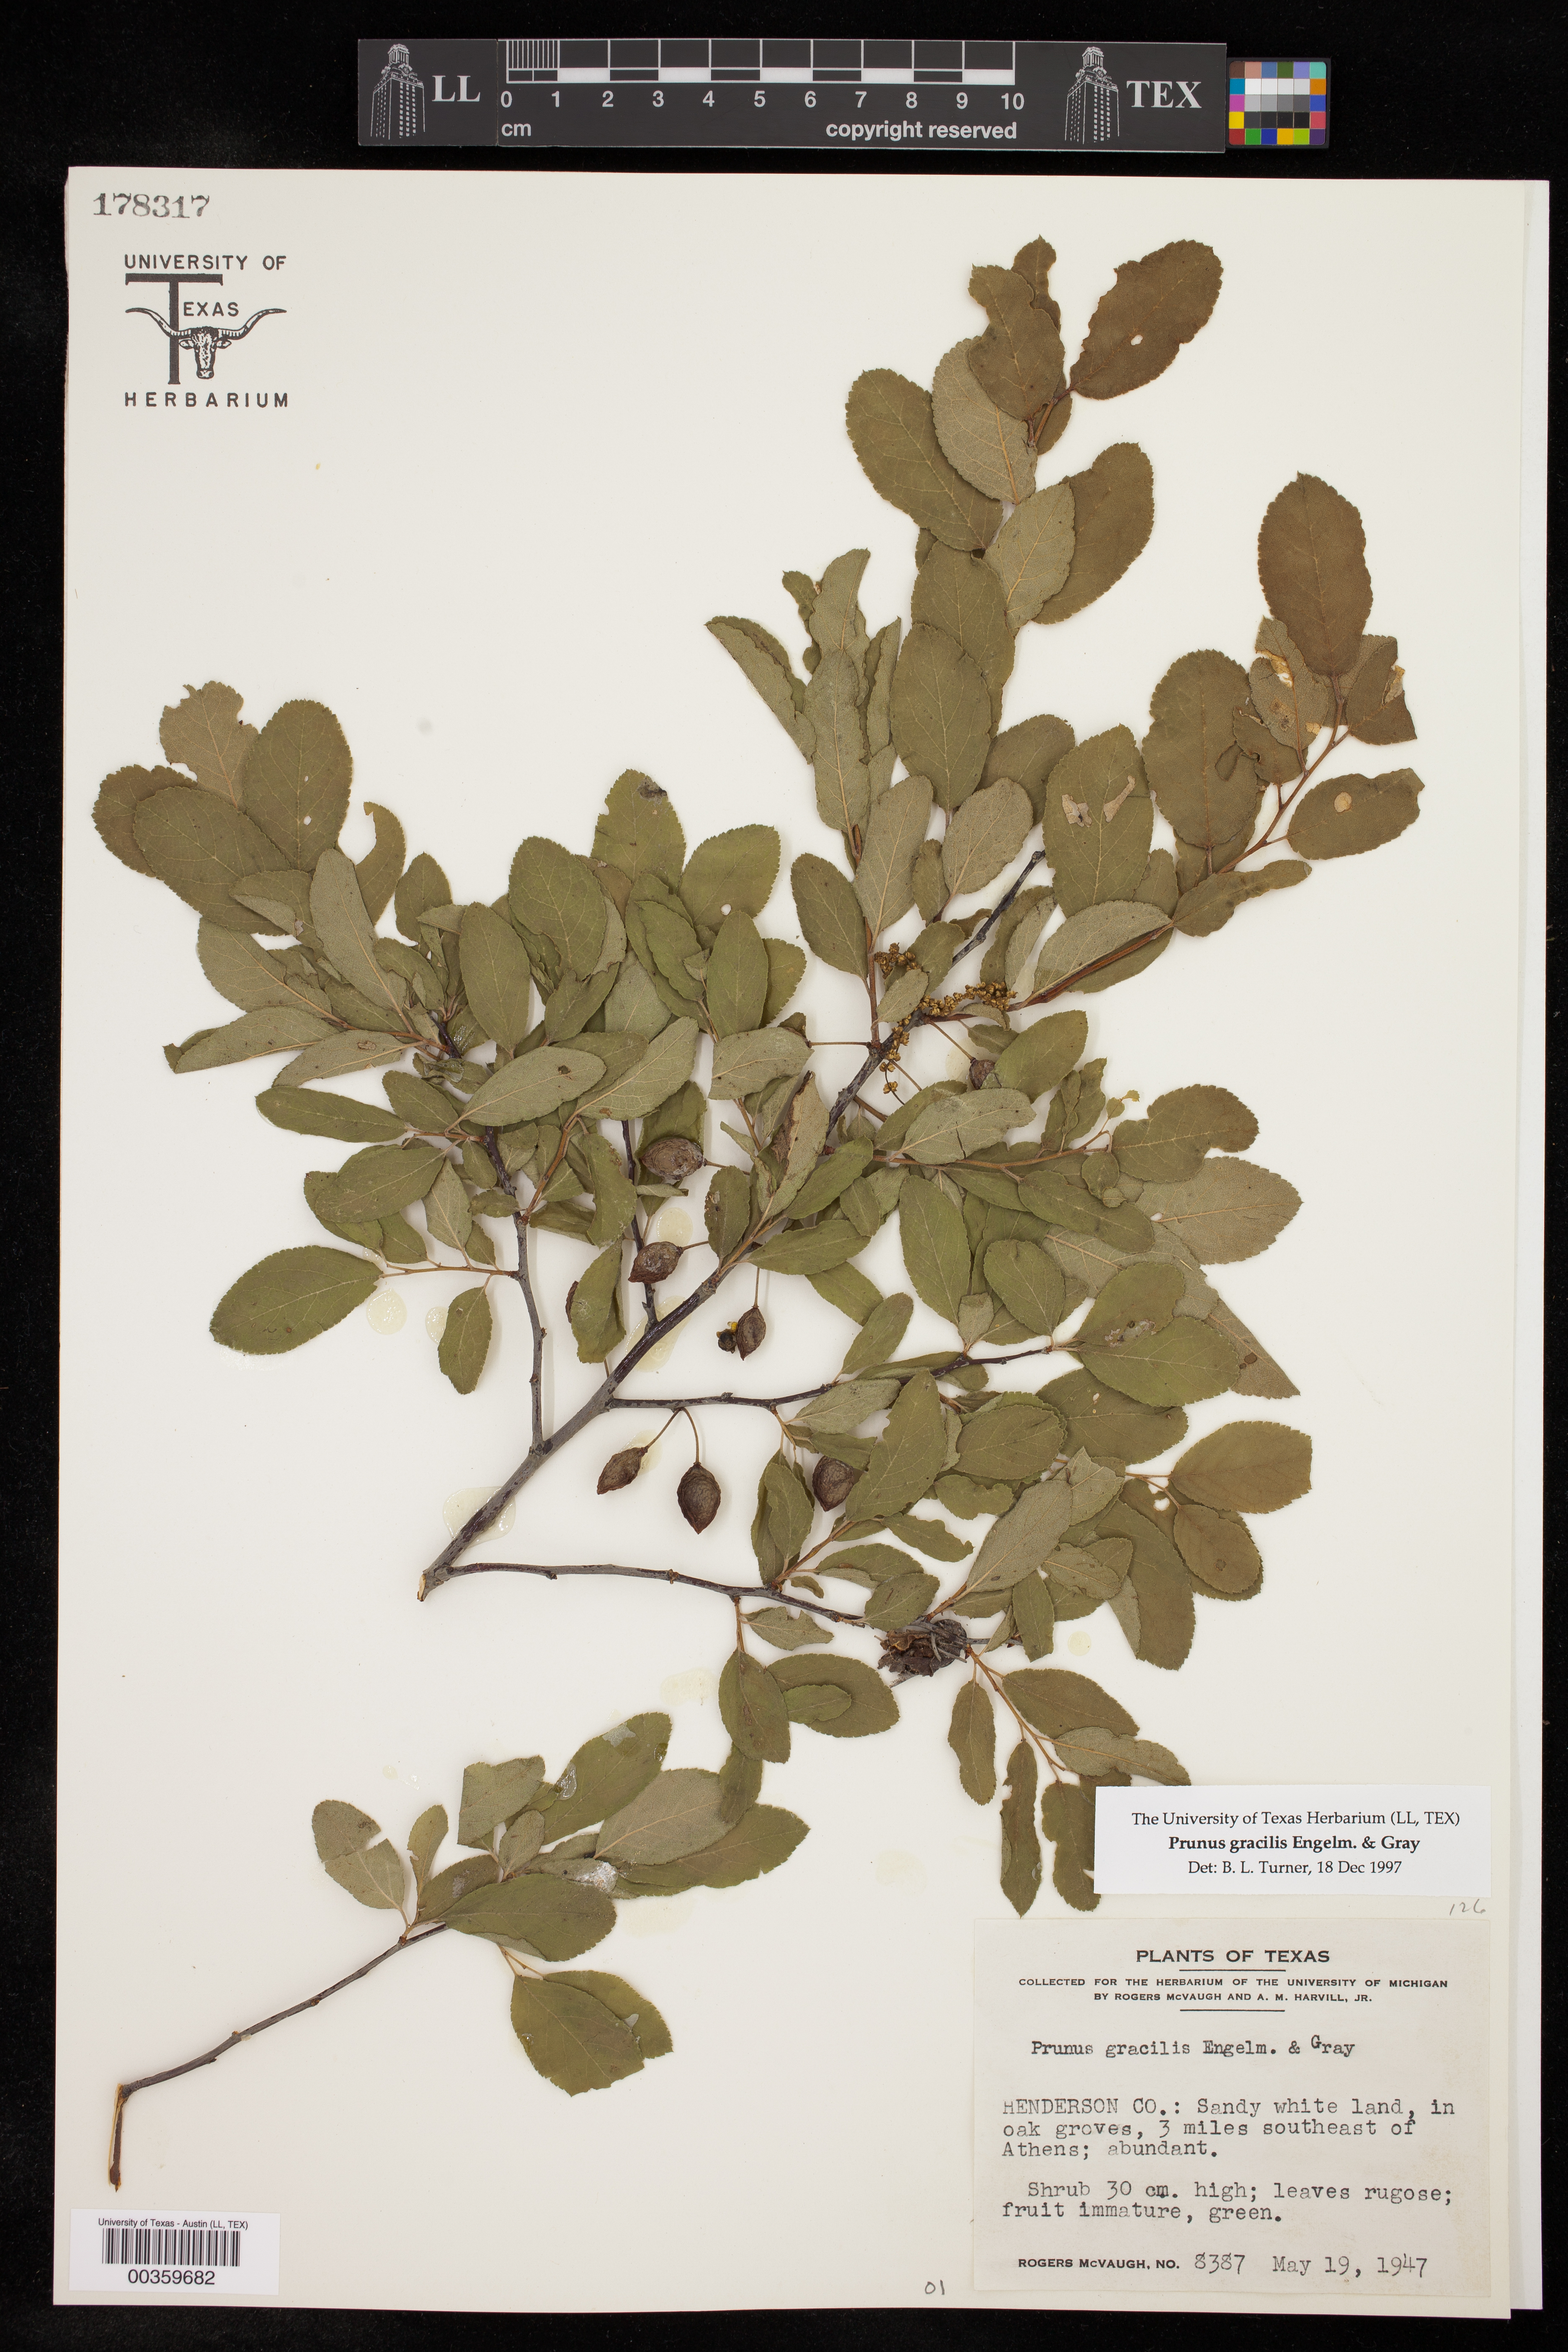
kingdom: Plantae
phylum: Tracheophyta
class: Magnoliopsida
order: Rosales
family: Rosaceae
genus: Prunus
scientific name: Prunus gracilis
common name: Oklahoma plum
